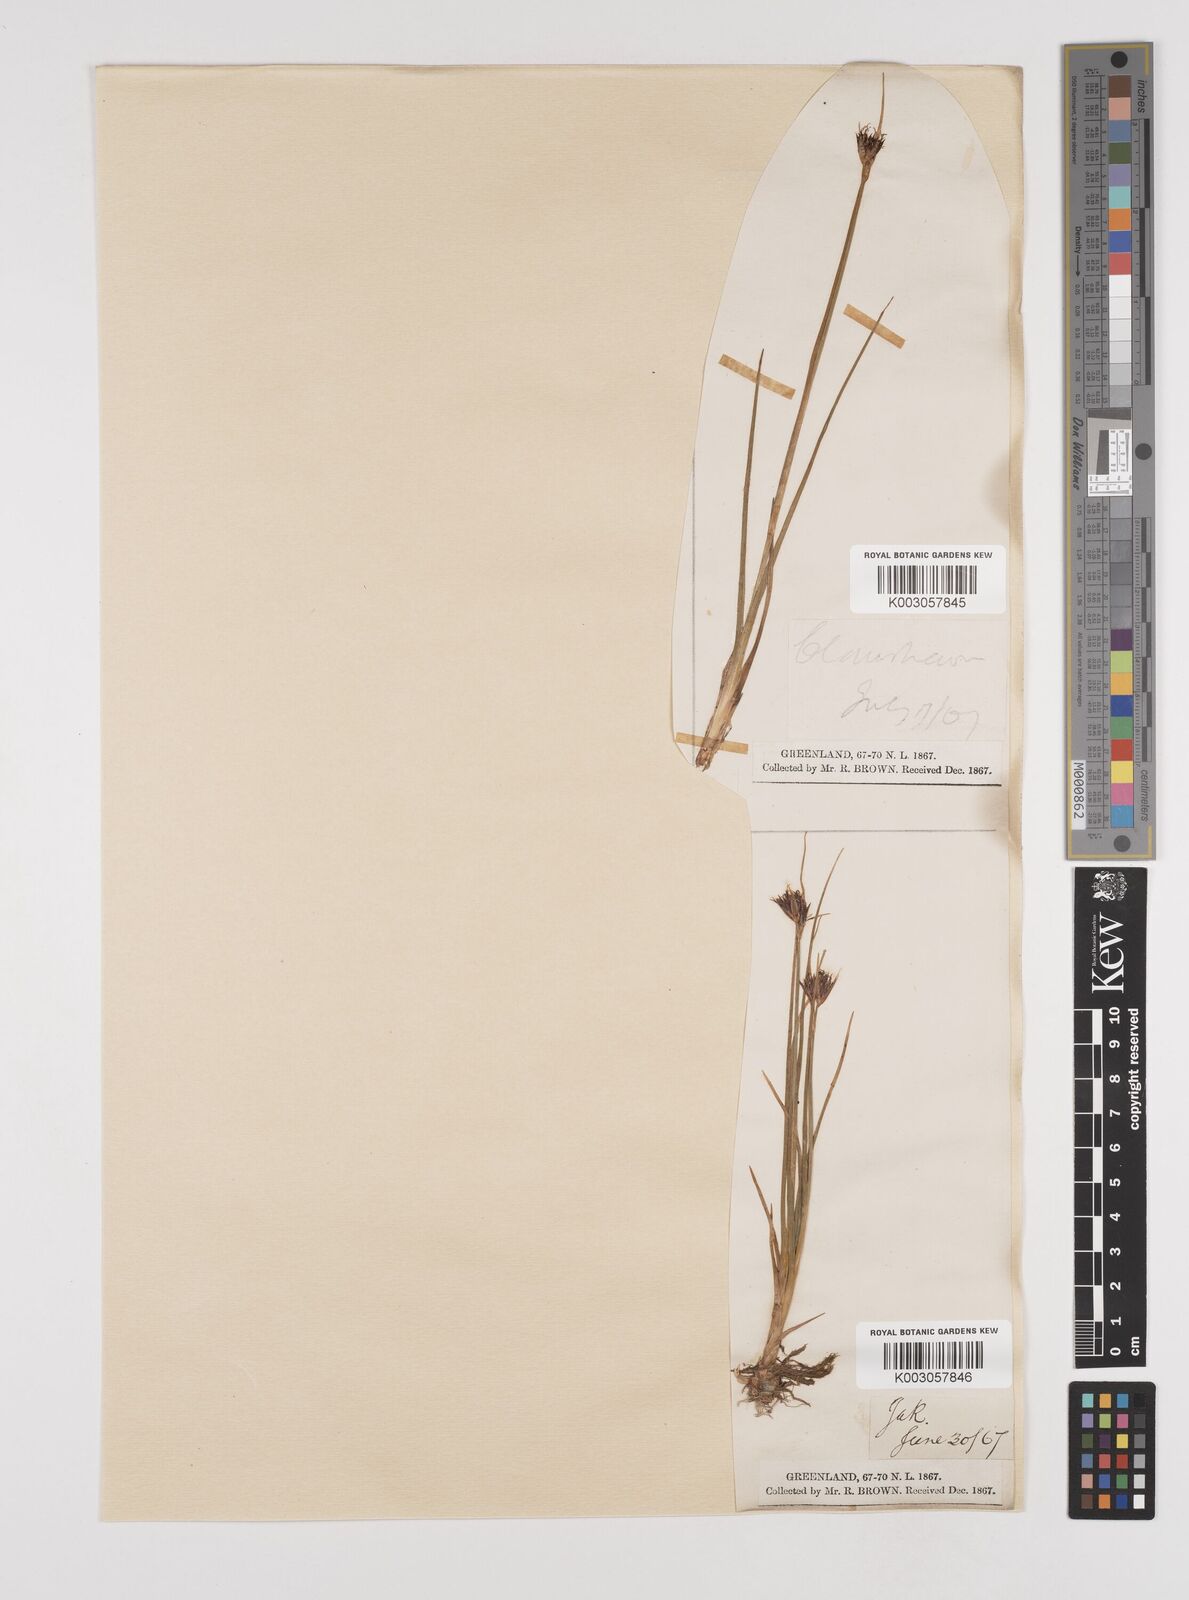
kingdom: Plantae
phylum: Tracheophyta
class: Liliopsida
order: Poales
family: Juncaceae
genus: Juncus
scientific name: Juncus castaneus
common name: Chestnut rush
